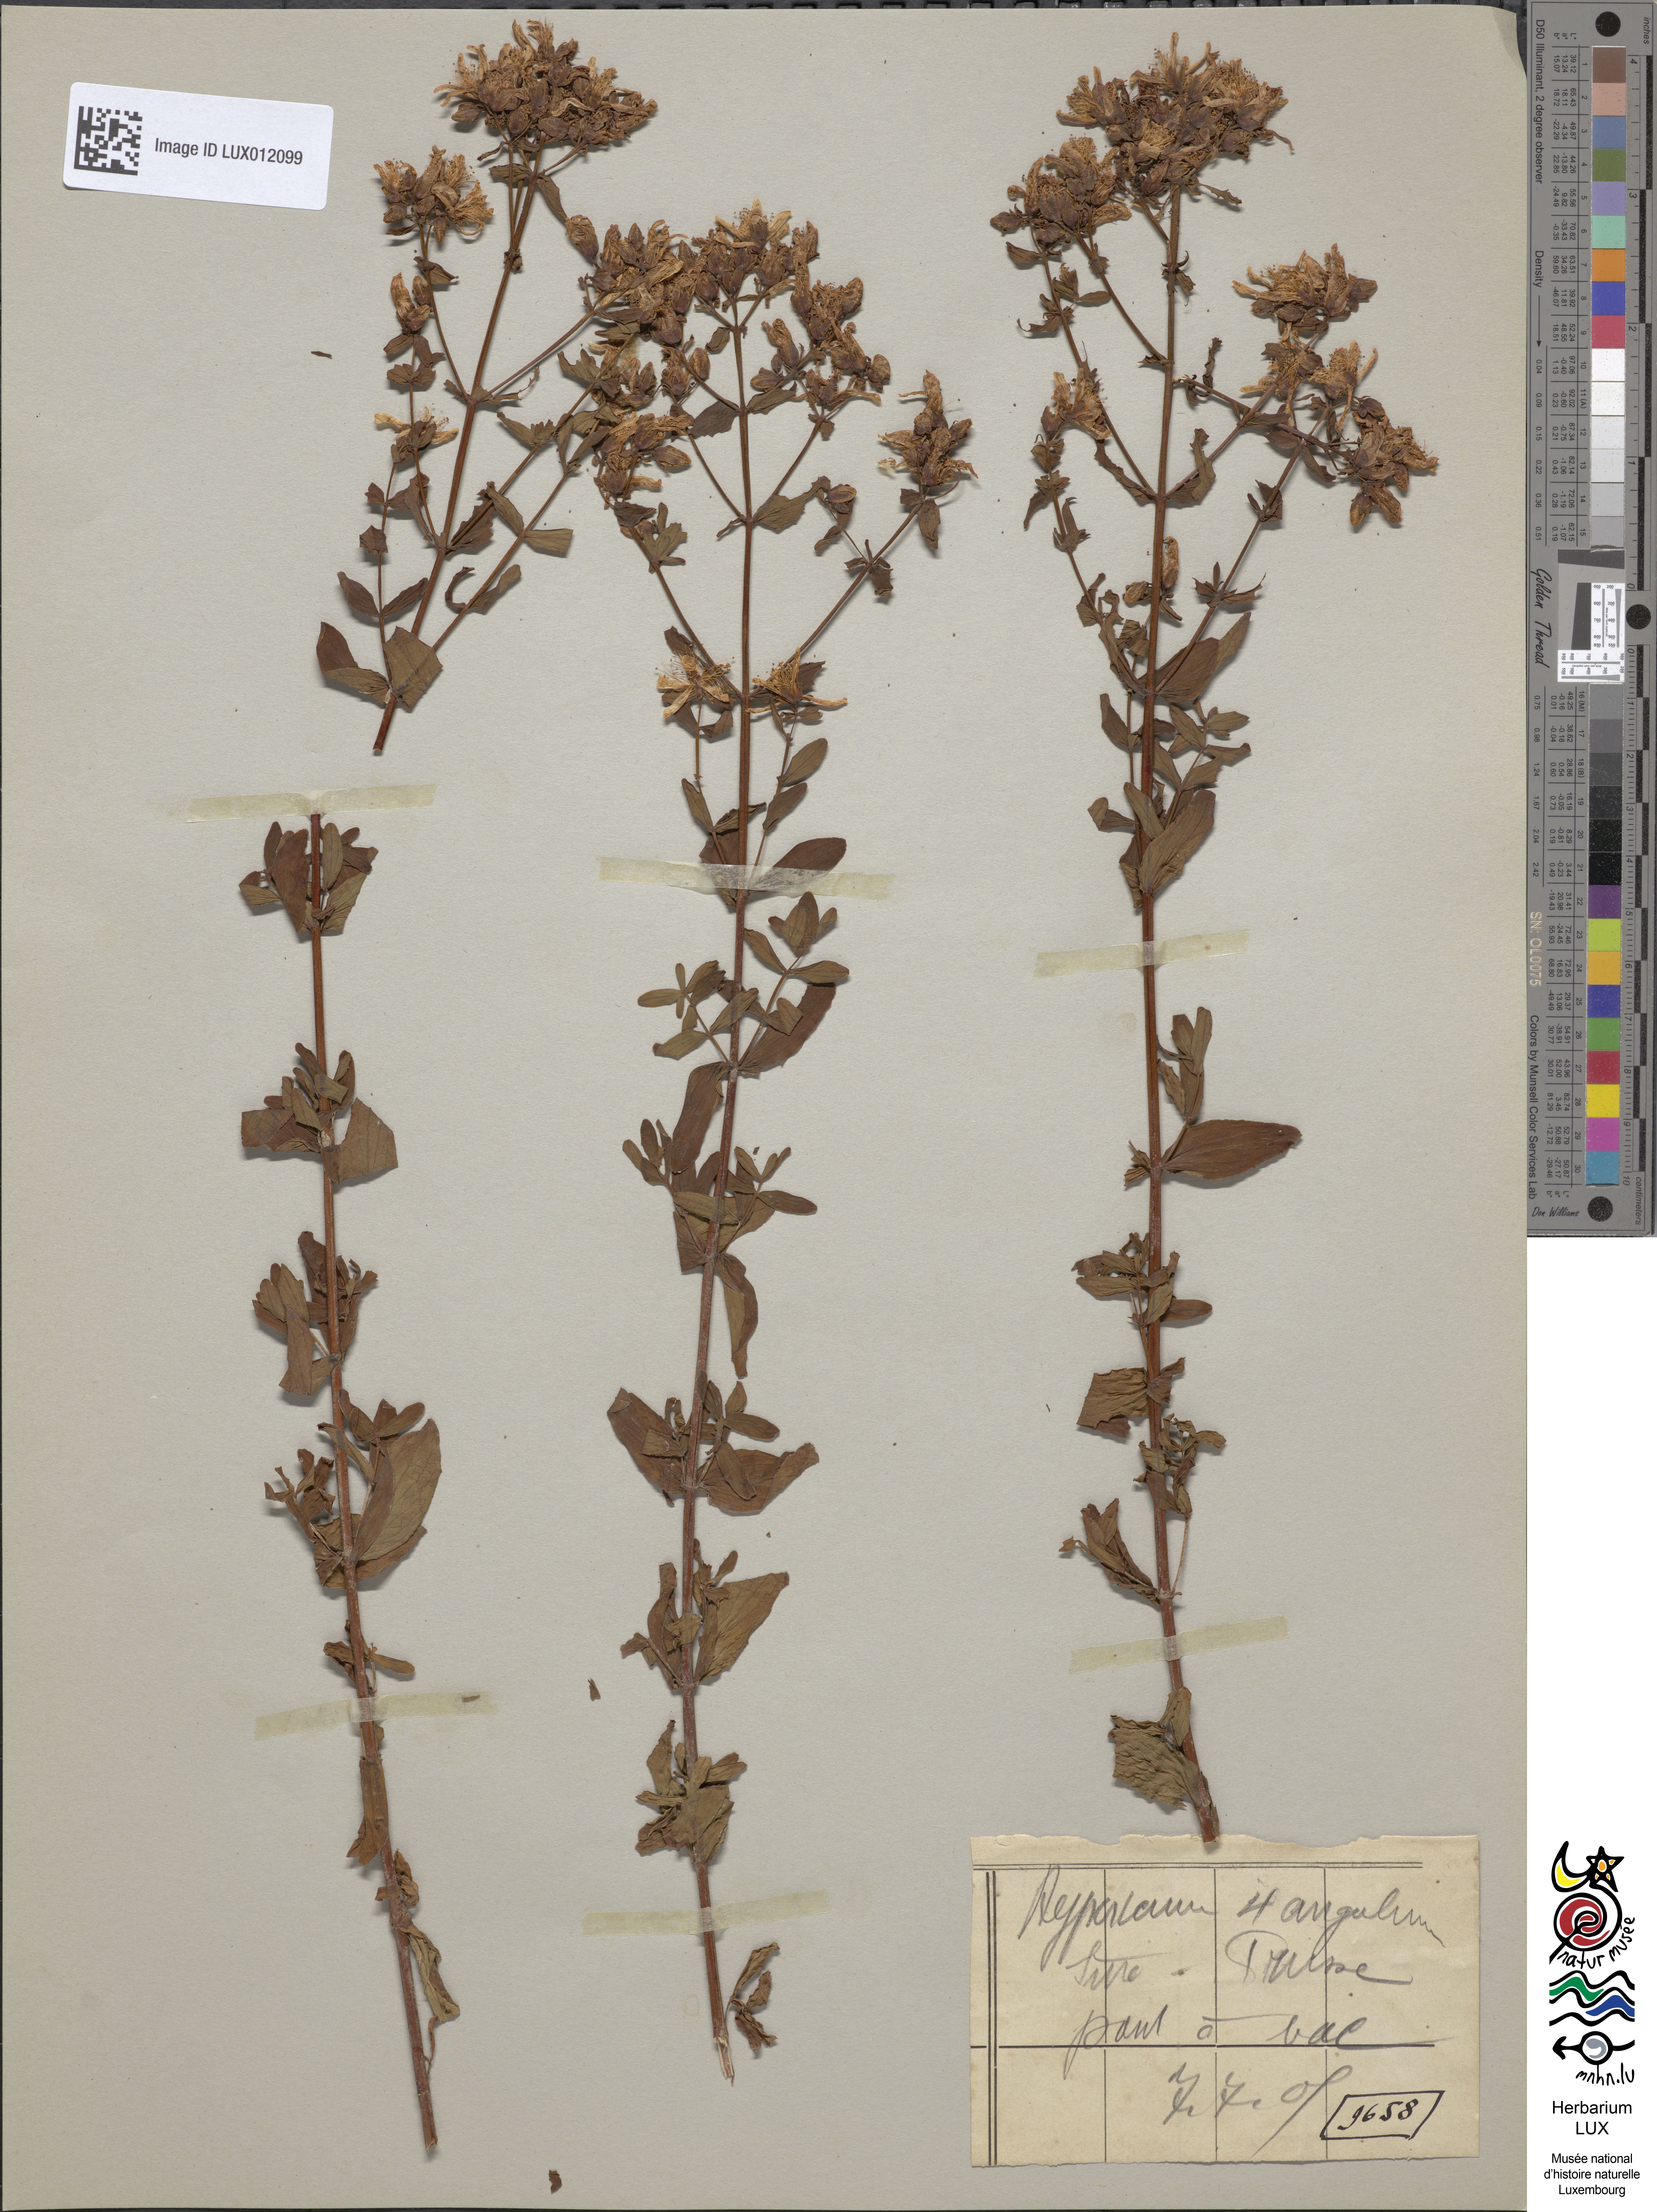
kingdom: Plantae
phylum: Tracheophyta
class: Magnoliopsida
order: Malpighiales
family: Hypericaceae
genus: Hypericum
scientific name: Hypericum tetrapterum
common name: Square-stalked st. john's-wort
